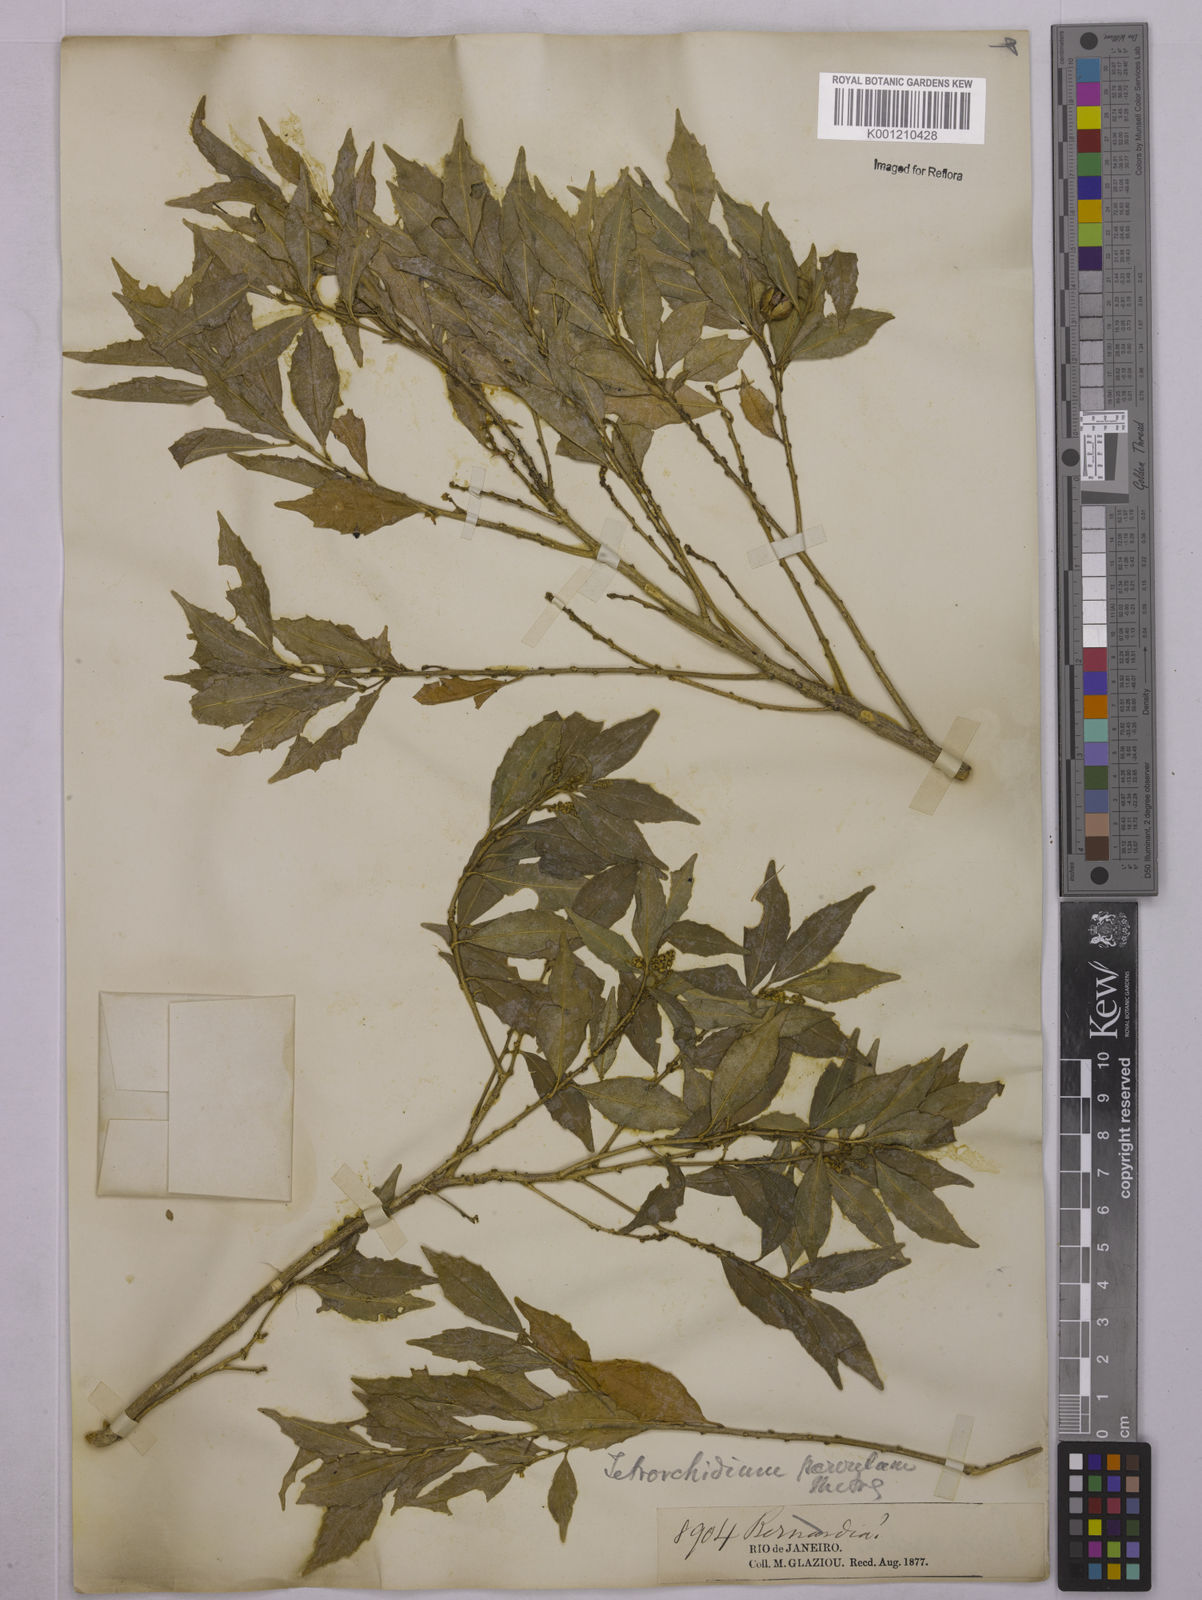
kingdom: Plantae
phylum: Tracheophyta
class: Magnoliopsida
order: Malpighiales
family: Euphorbiaceae
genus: Tetrorchidium
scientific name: Tetrorchidium
